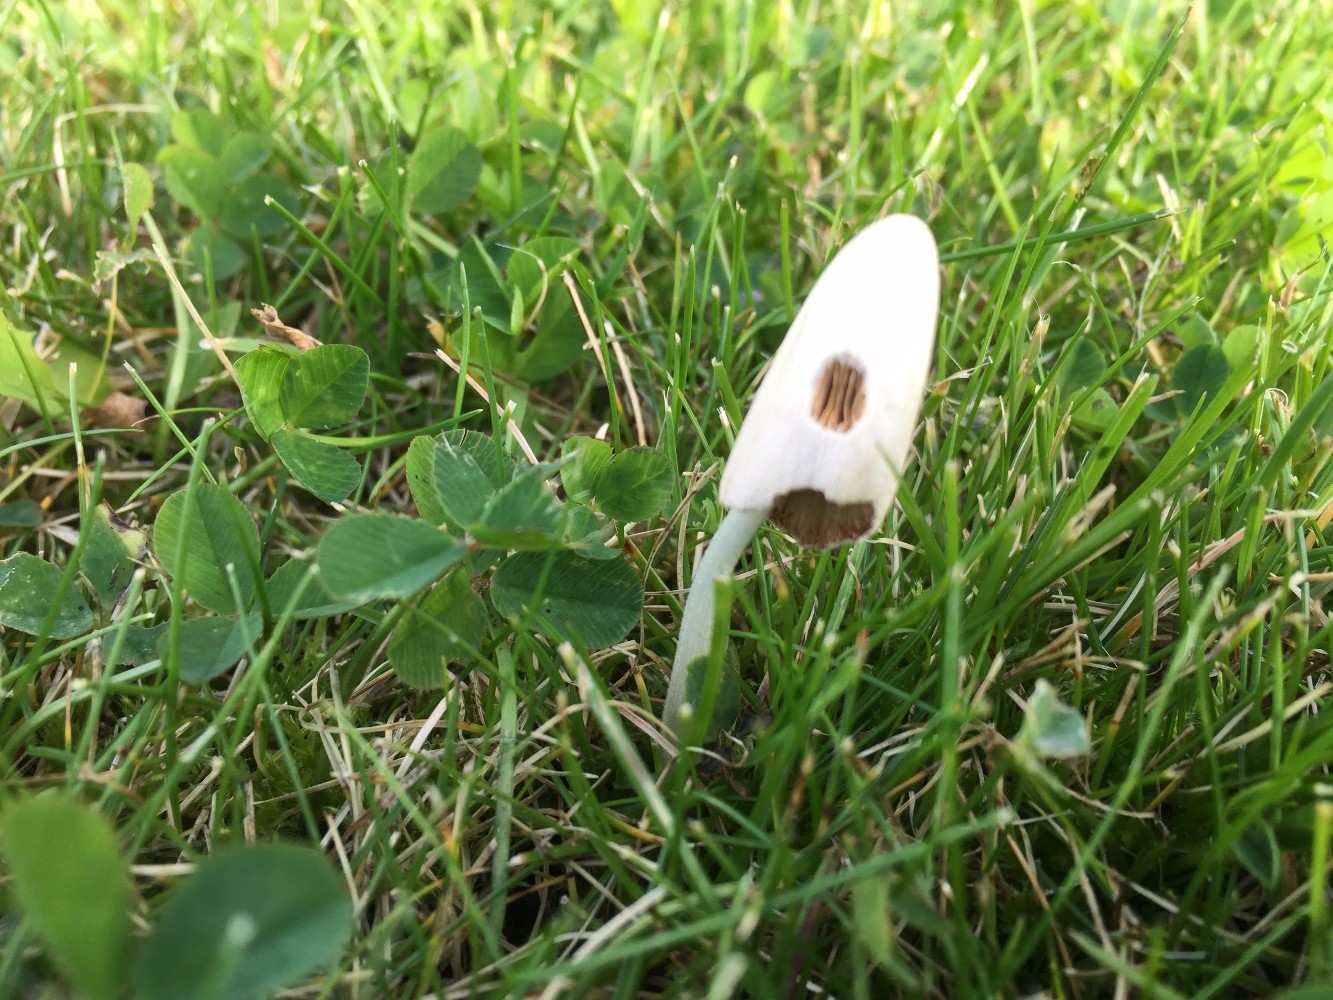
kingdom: Fungi
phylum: Basidiomycota
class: Agaricomycetes
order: Agaricales
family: Bolbitiaceae
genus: Conocybe
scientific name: Conocybe apala
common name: mælkehvid keglehat
